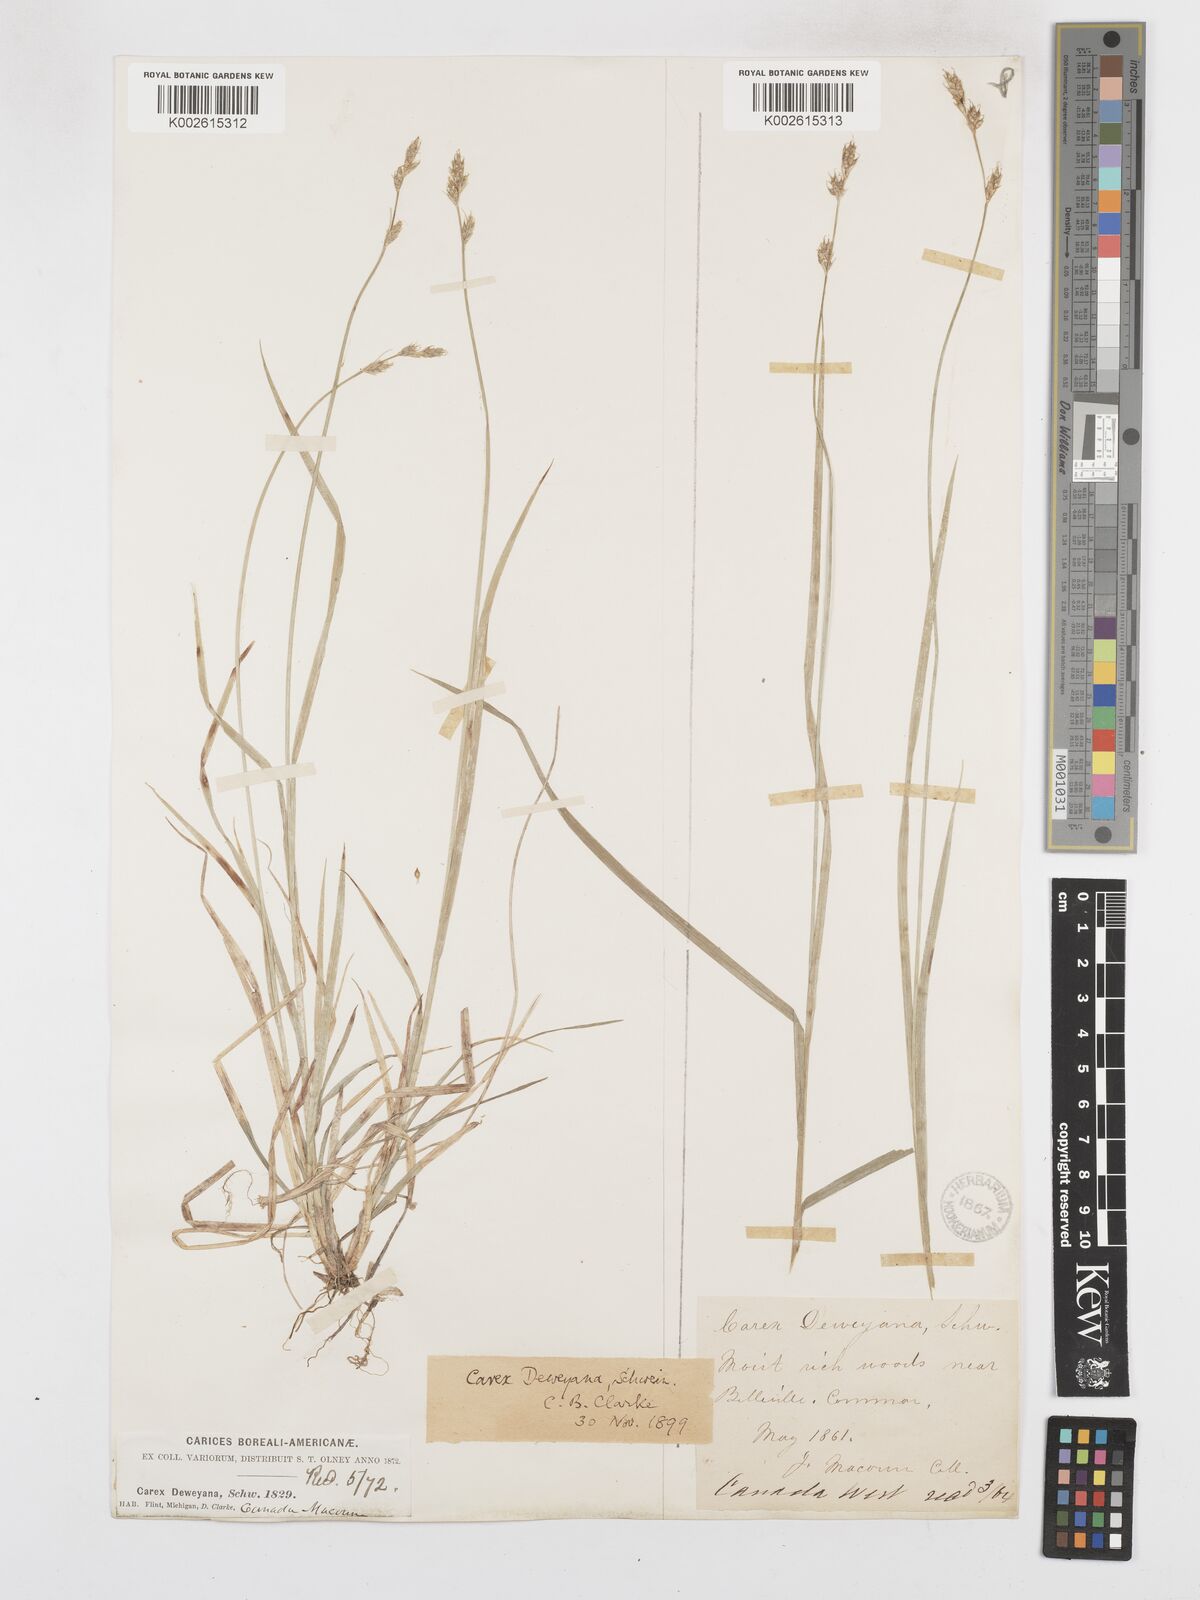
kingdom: Plantae
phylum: Tracheophyta
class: Liliopsida
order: Poales
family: Cyperaceae
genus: Carex
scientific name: Carex deweyana
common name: Dewey's sedge
